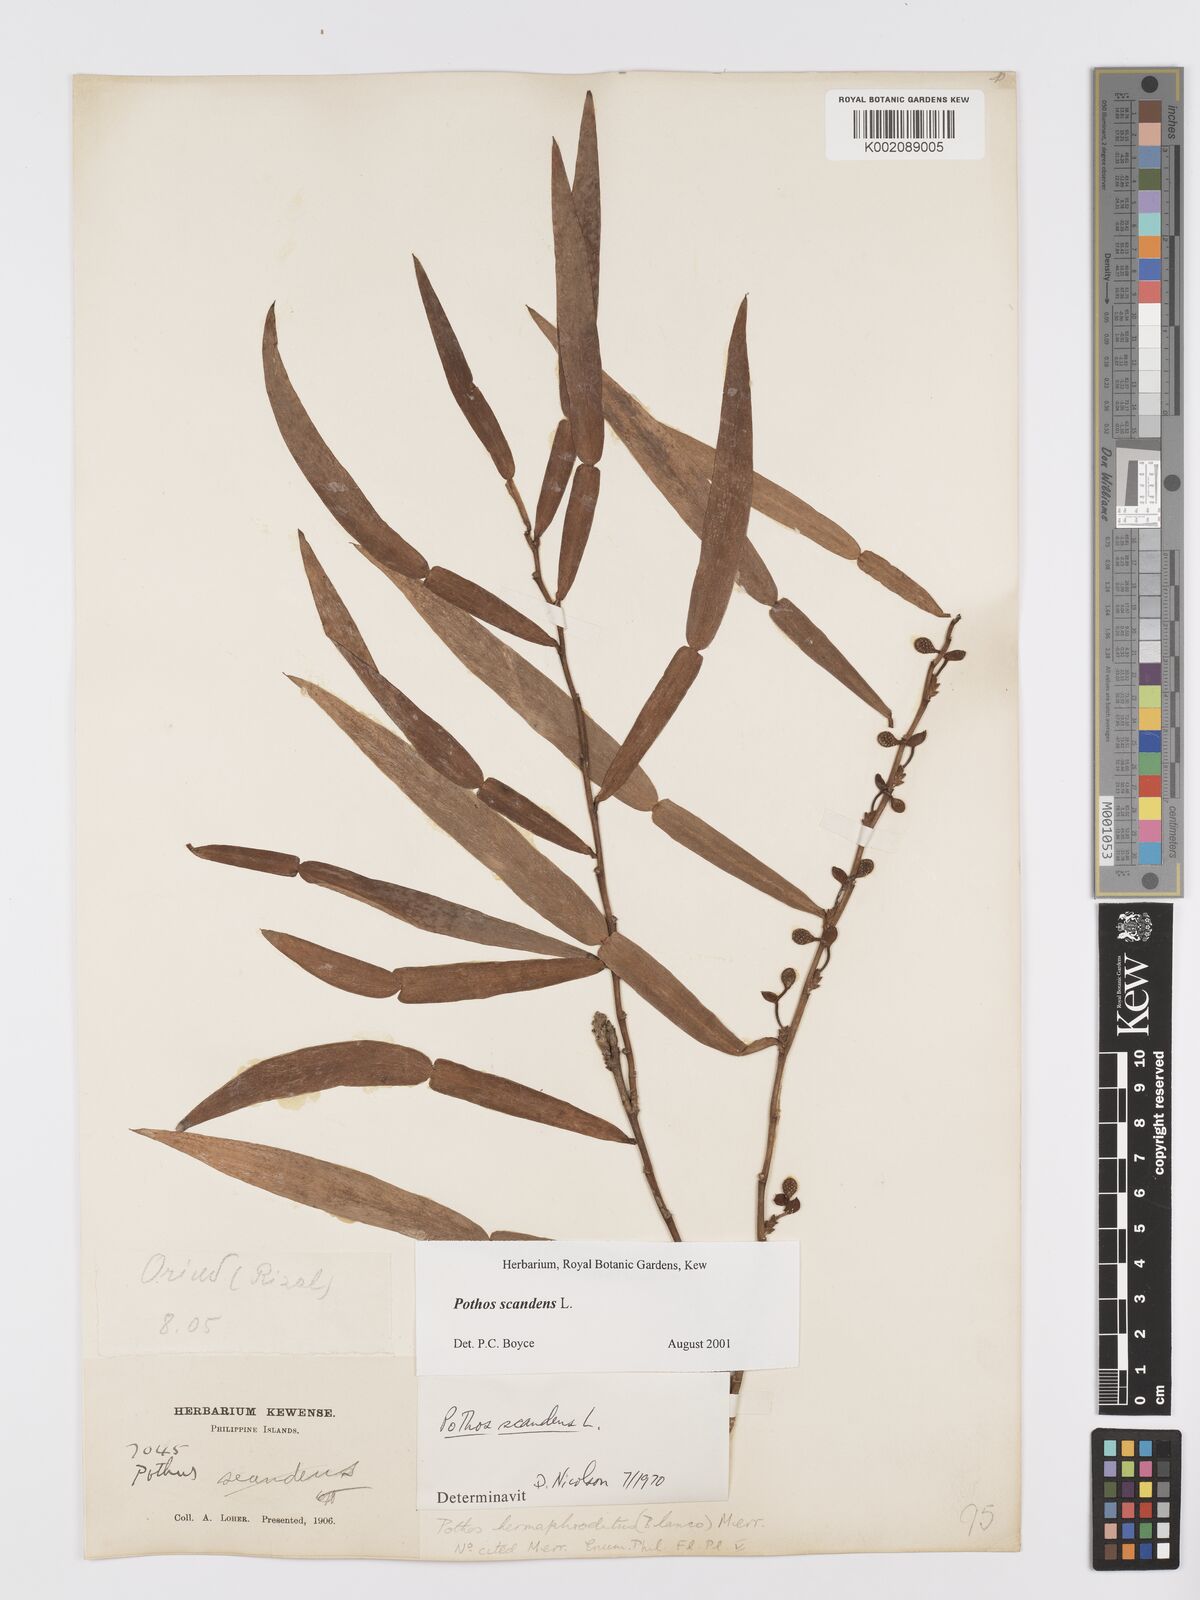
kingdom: Plantae
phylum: Tracheophyta
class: Liliopsida
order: Alismatales
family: Araceae
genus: Pothos
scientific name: Pothos scandens
